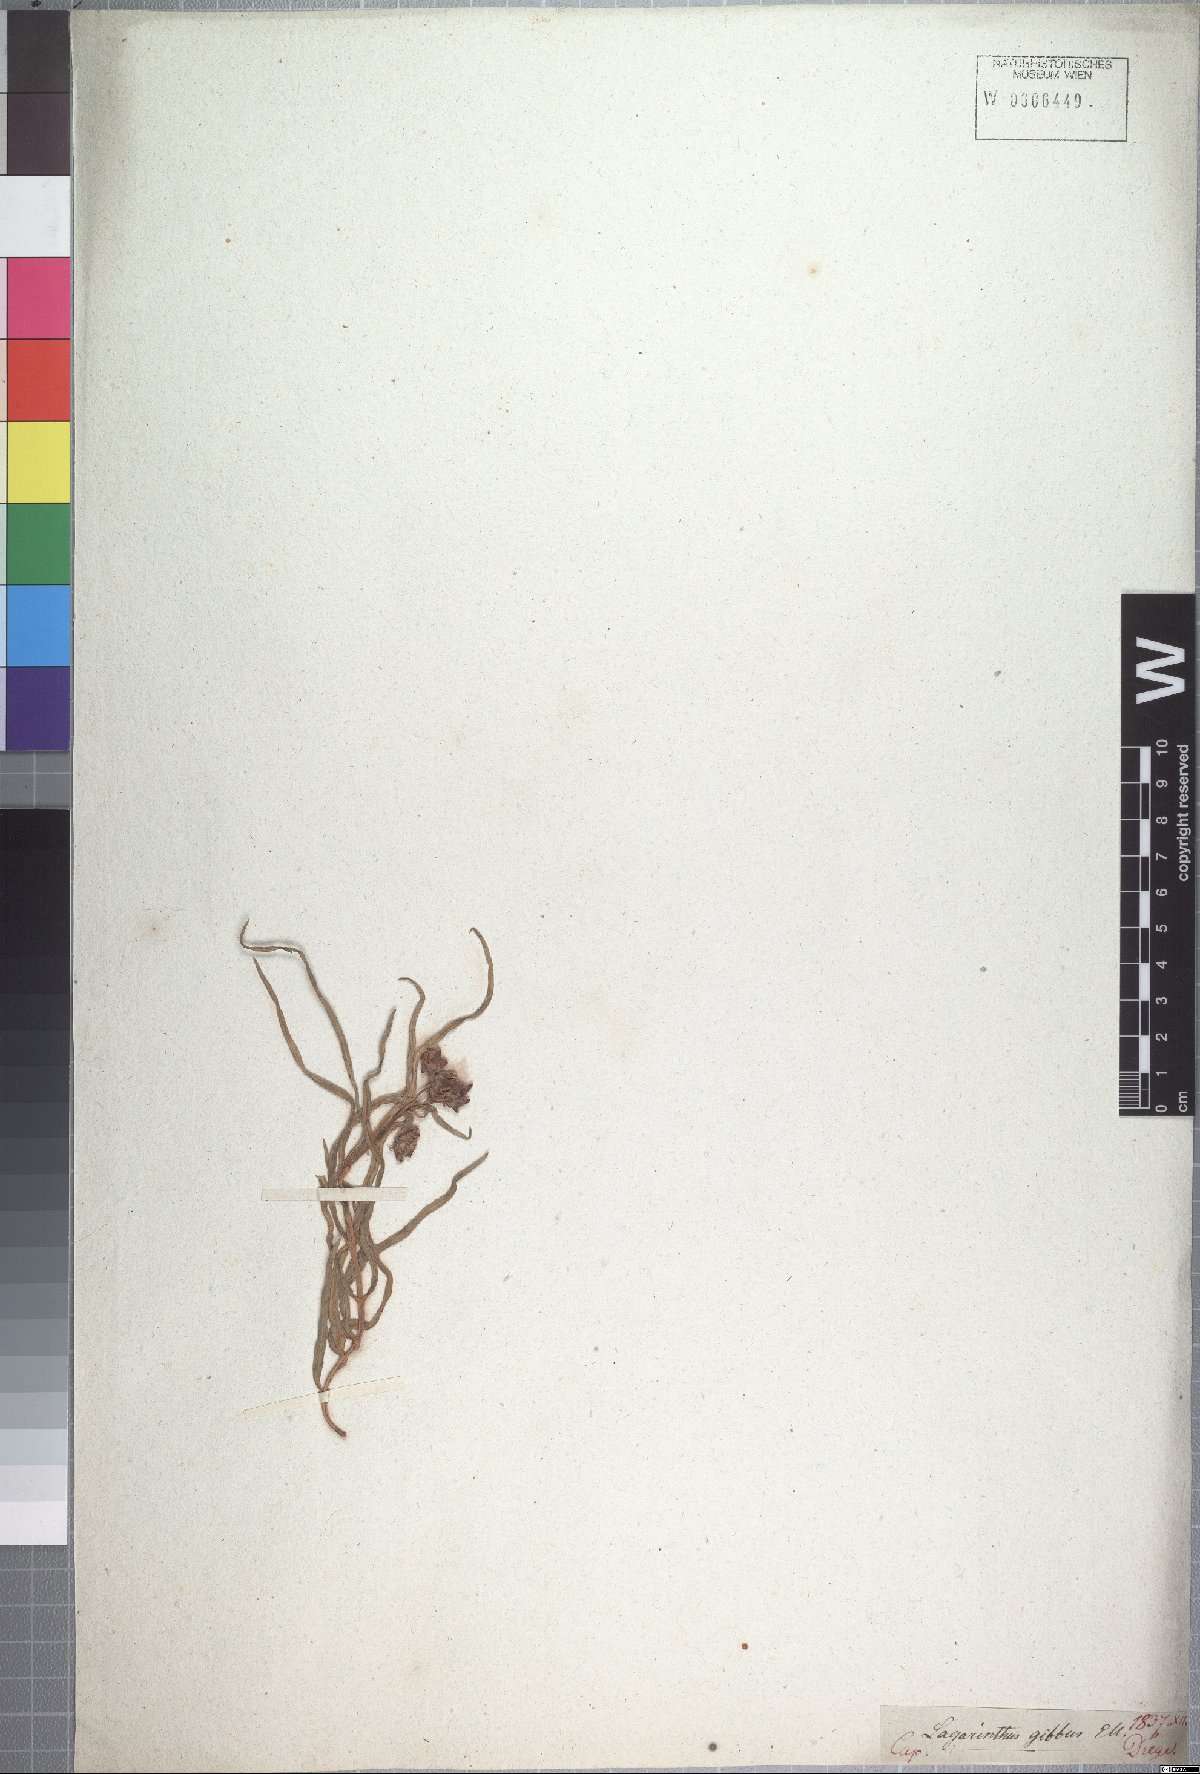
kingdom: Plantae
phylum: Tracheophyta
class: Magnoliopsida
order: Gentianales
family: Apocynaceae
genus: Asclepias
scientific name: Asclepias gibba
